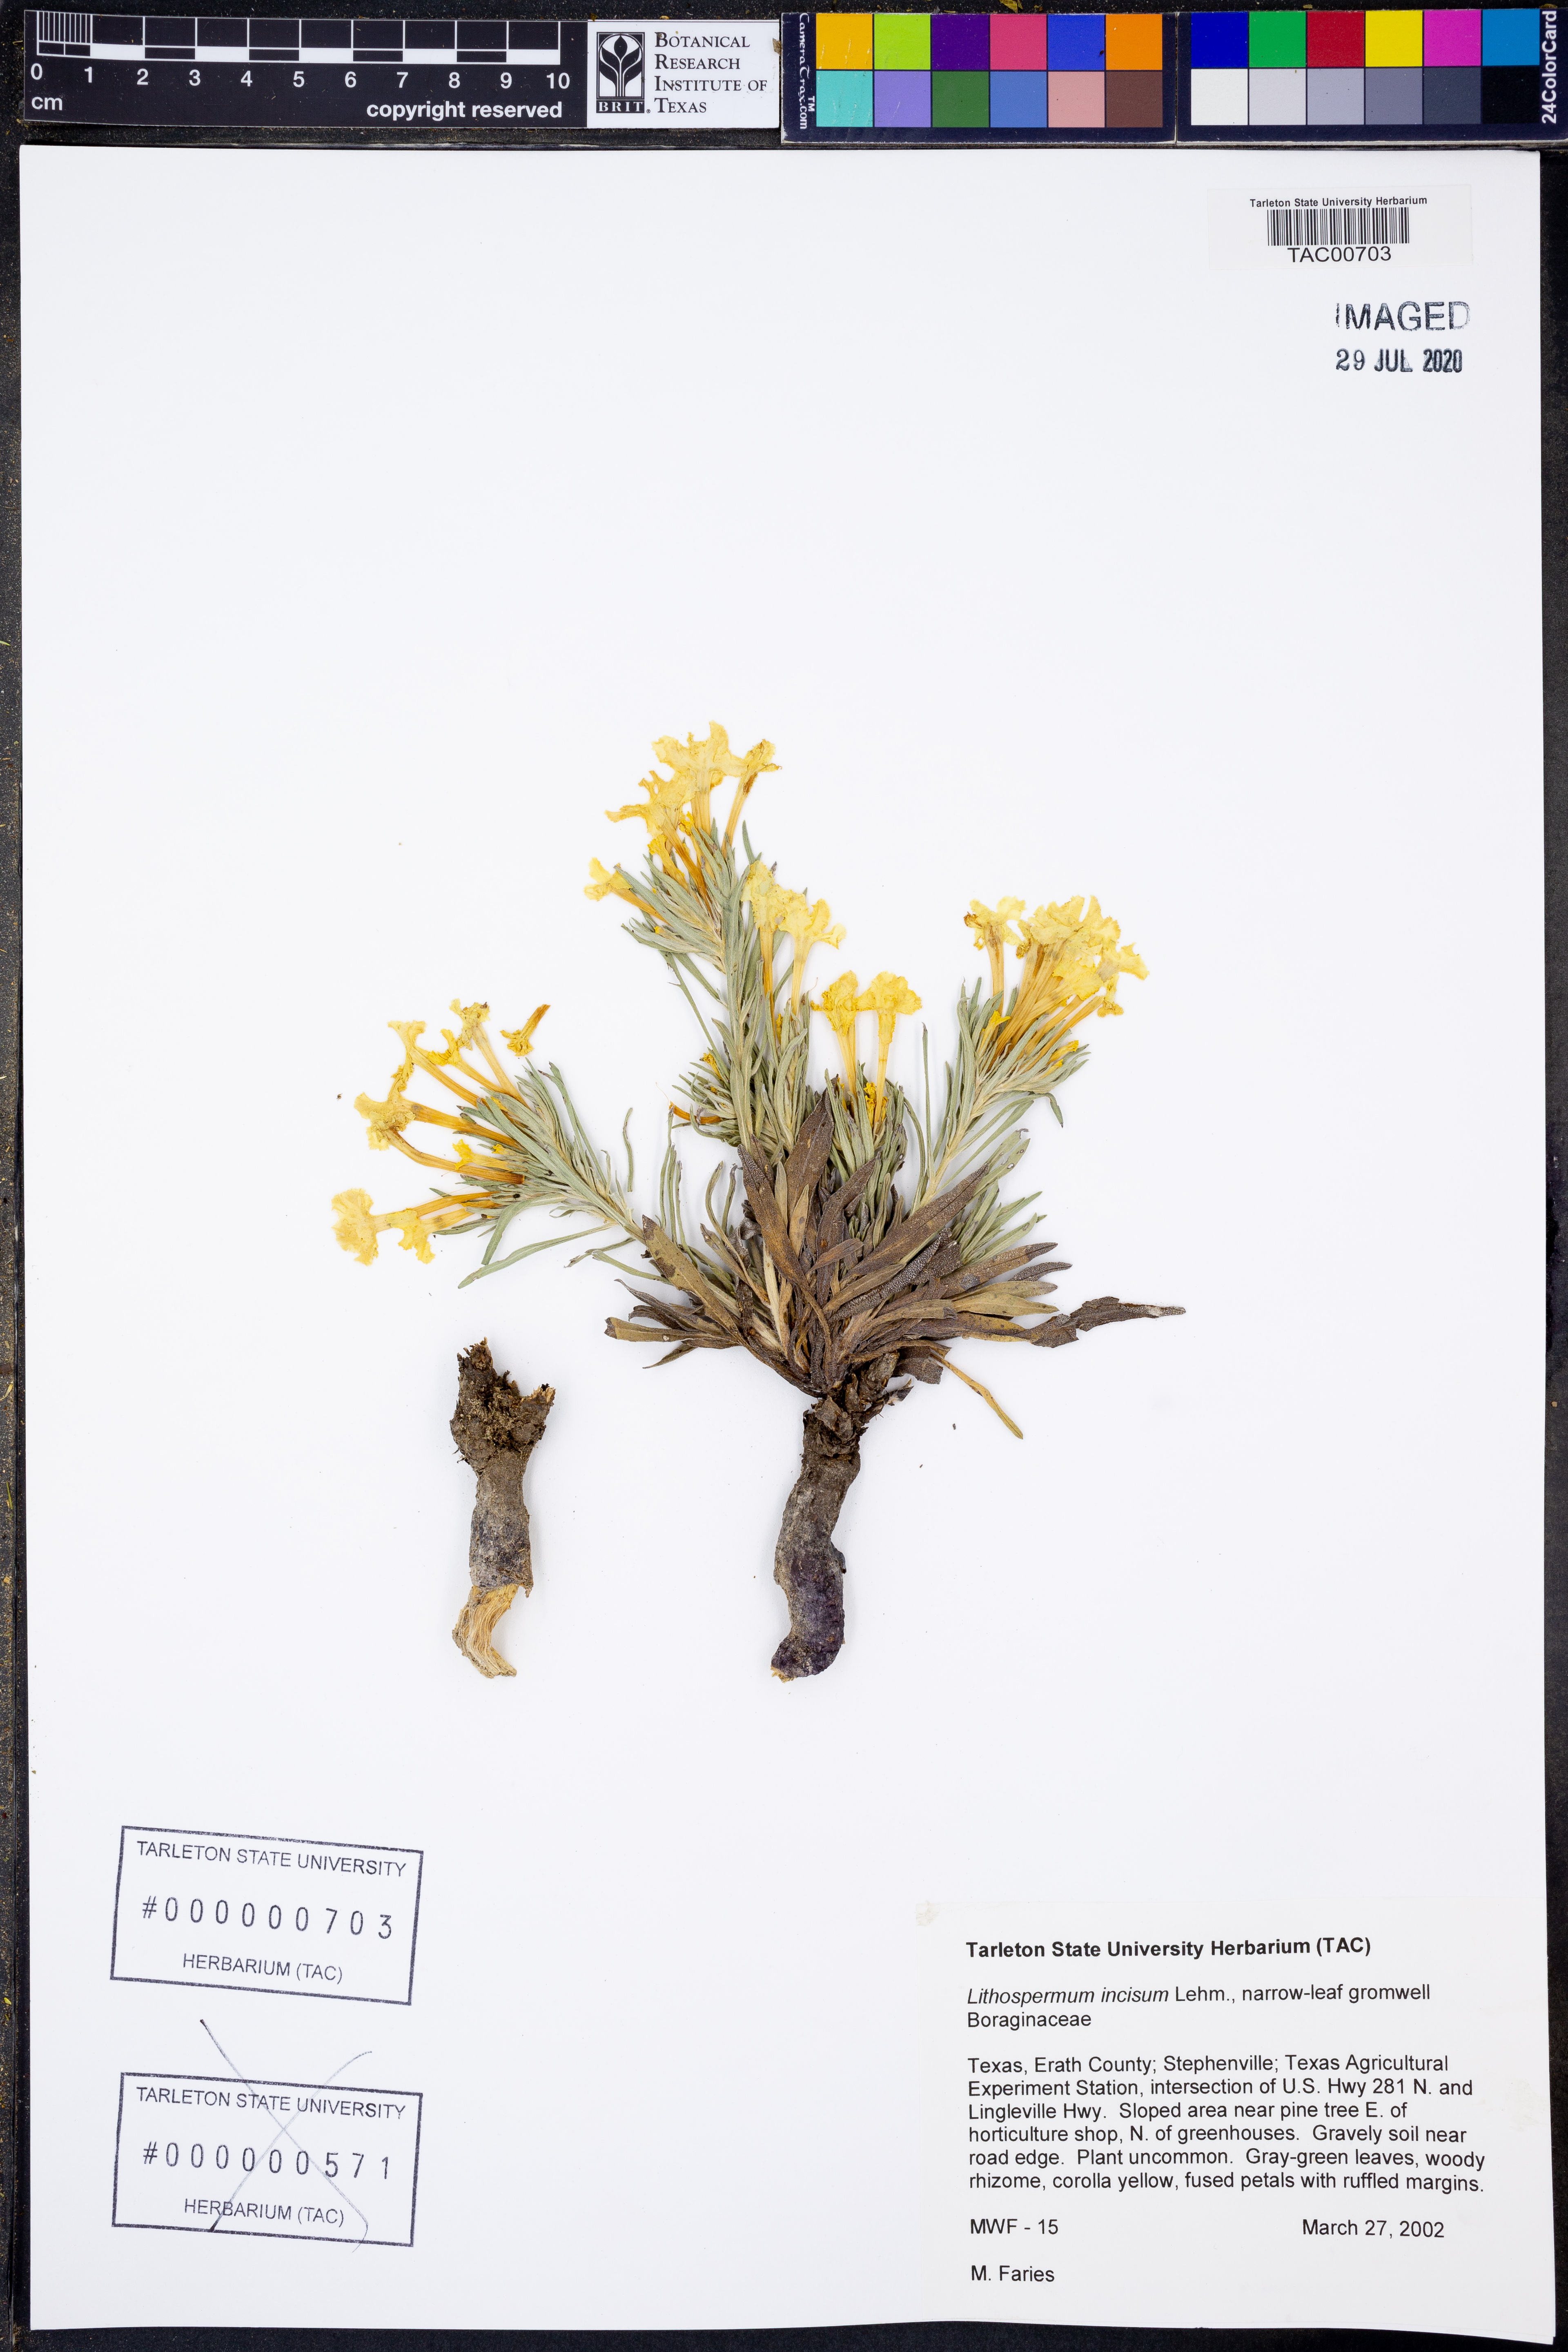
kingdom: Plantae
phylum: Tracheophyta
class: Magnoliopsida
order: Boraginales
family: Boraginaceae
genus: Lithospermum
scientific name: Lithospermum incisum
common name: Fringed gromwell
